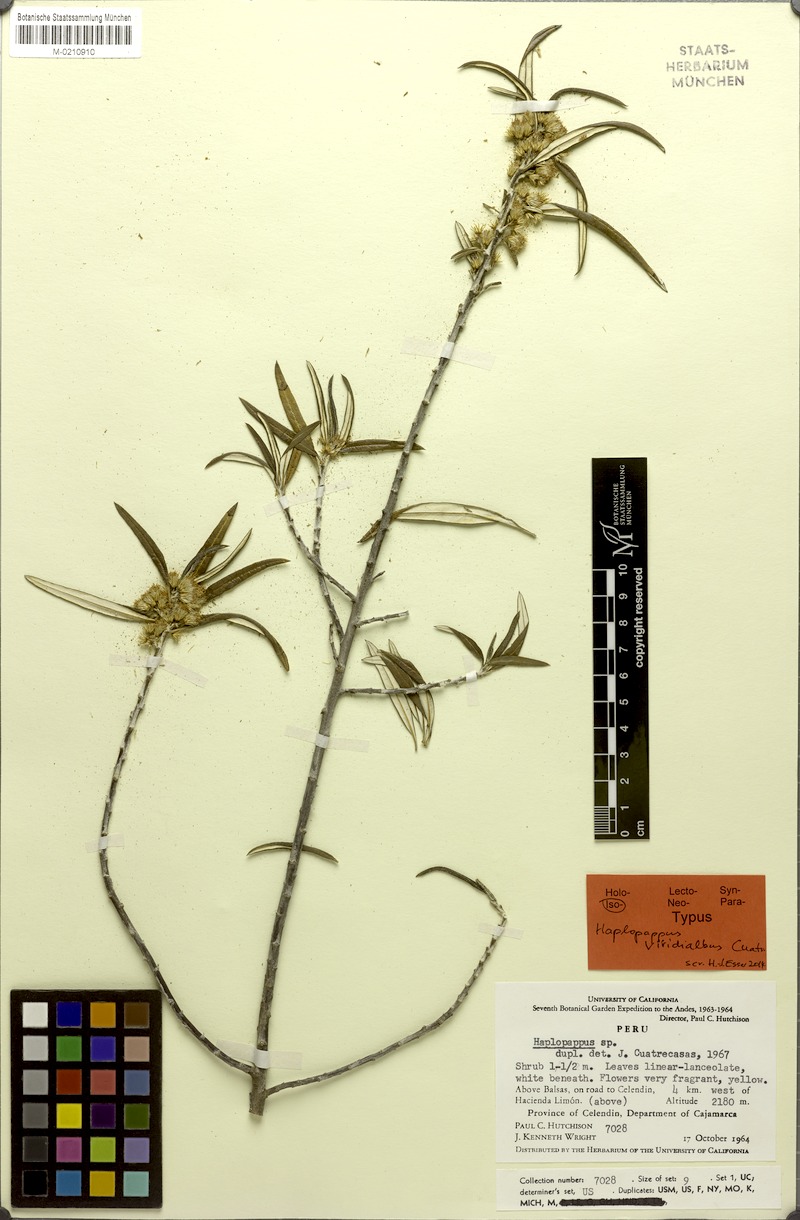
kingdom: Plantae
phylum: Tracheophyta
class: Magnoliopsida
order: Asterales
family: Asteraceae
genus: Haplopappus
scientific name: Haplopappus viridialbus
